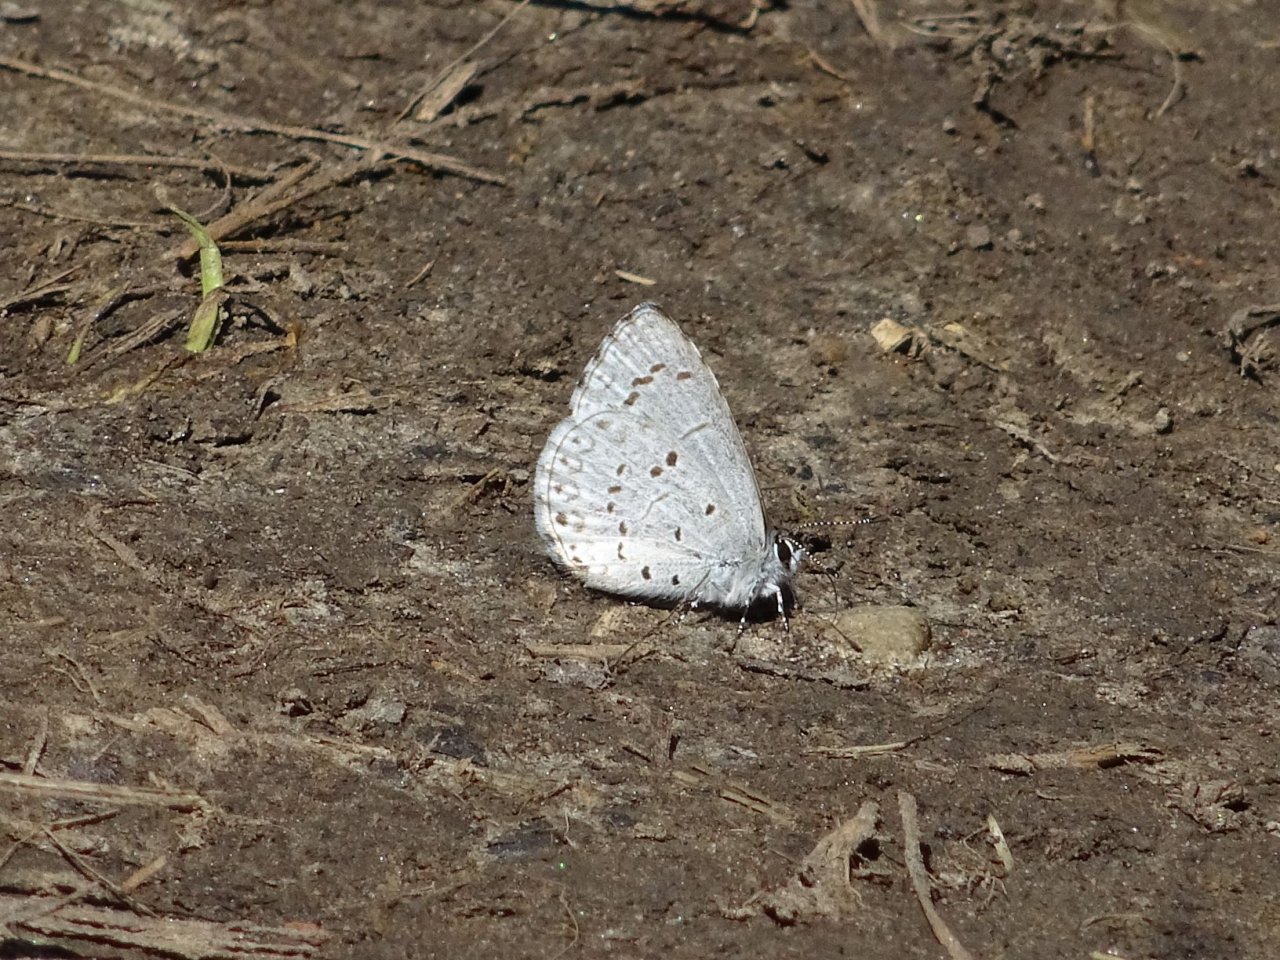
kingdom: Animalia
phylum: Arthropoda
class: Insecta
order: Lepidoptera
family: Lycaenidae
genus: Celastrina
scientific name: Celastrina lucia
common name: Northern Spring Azure
